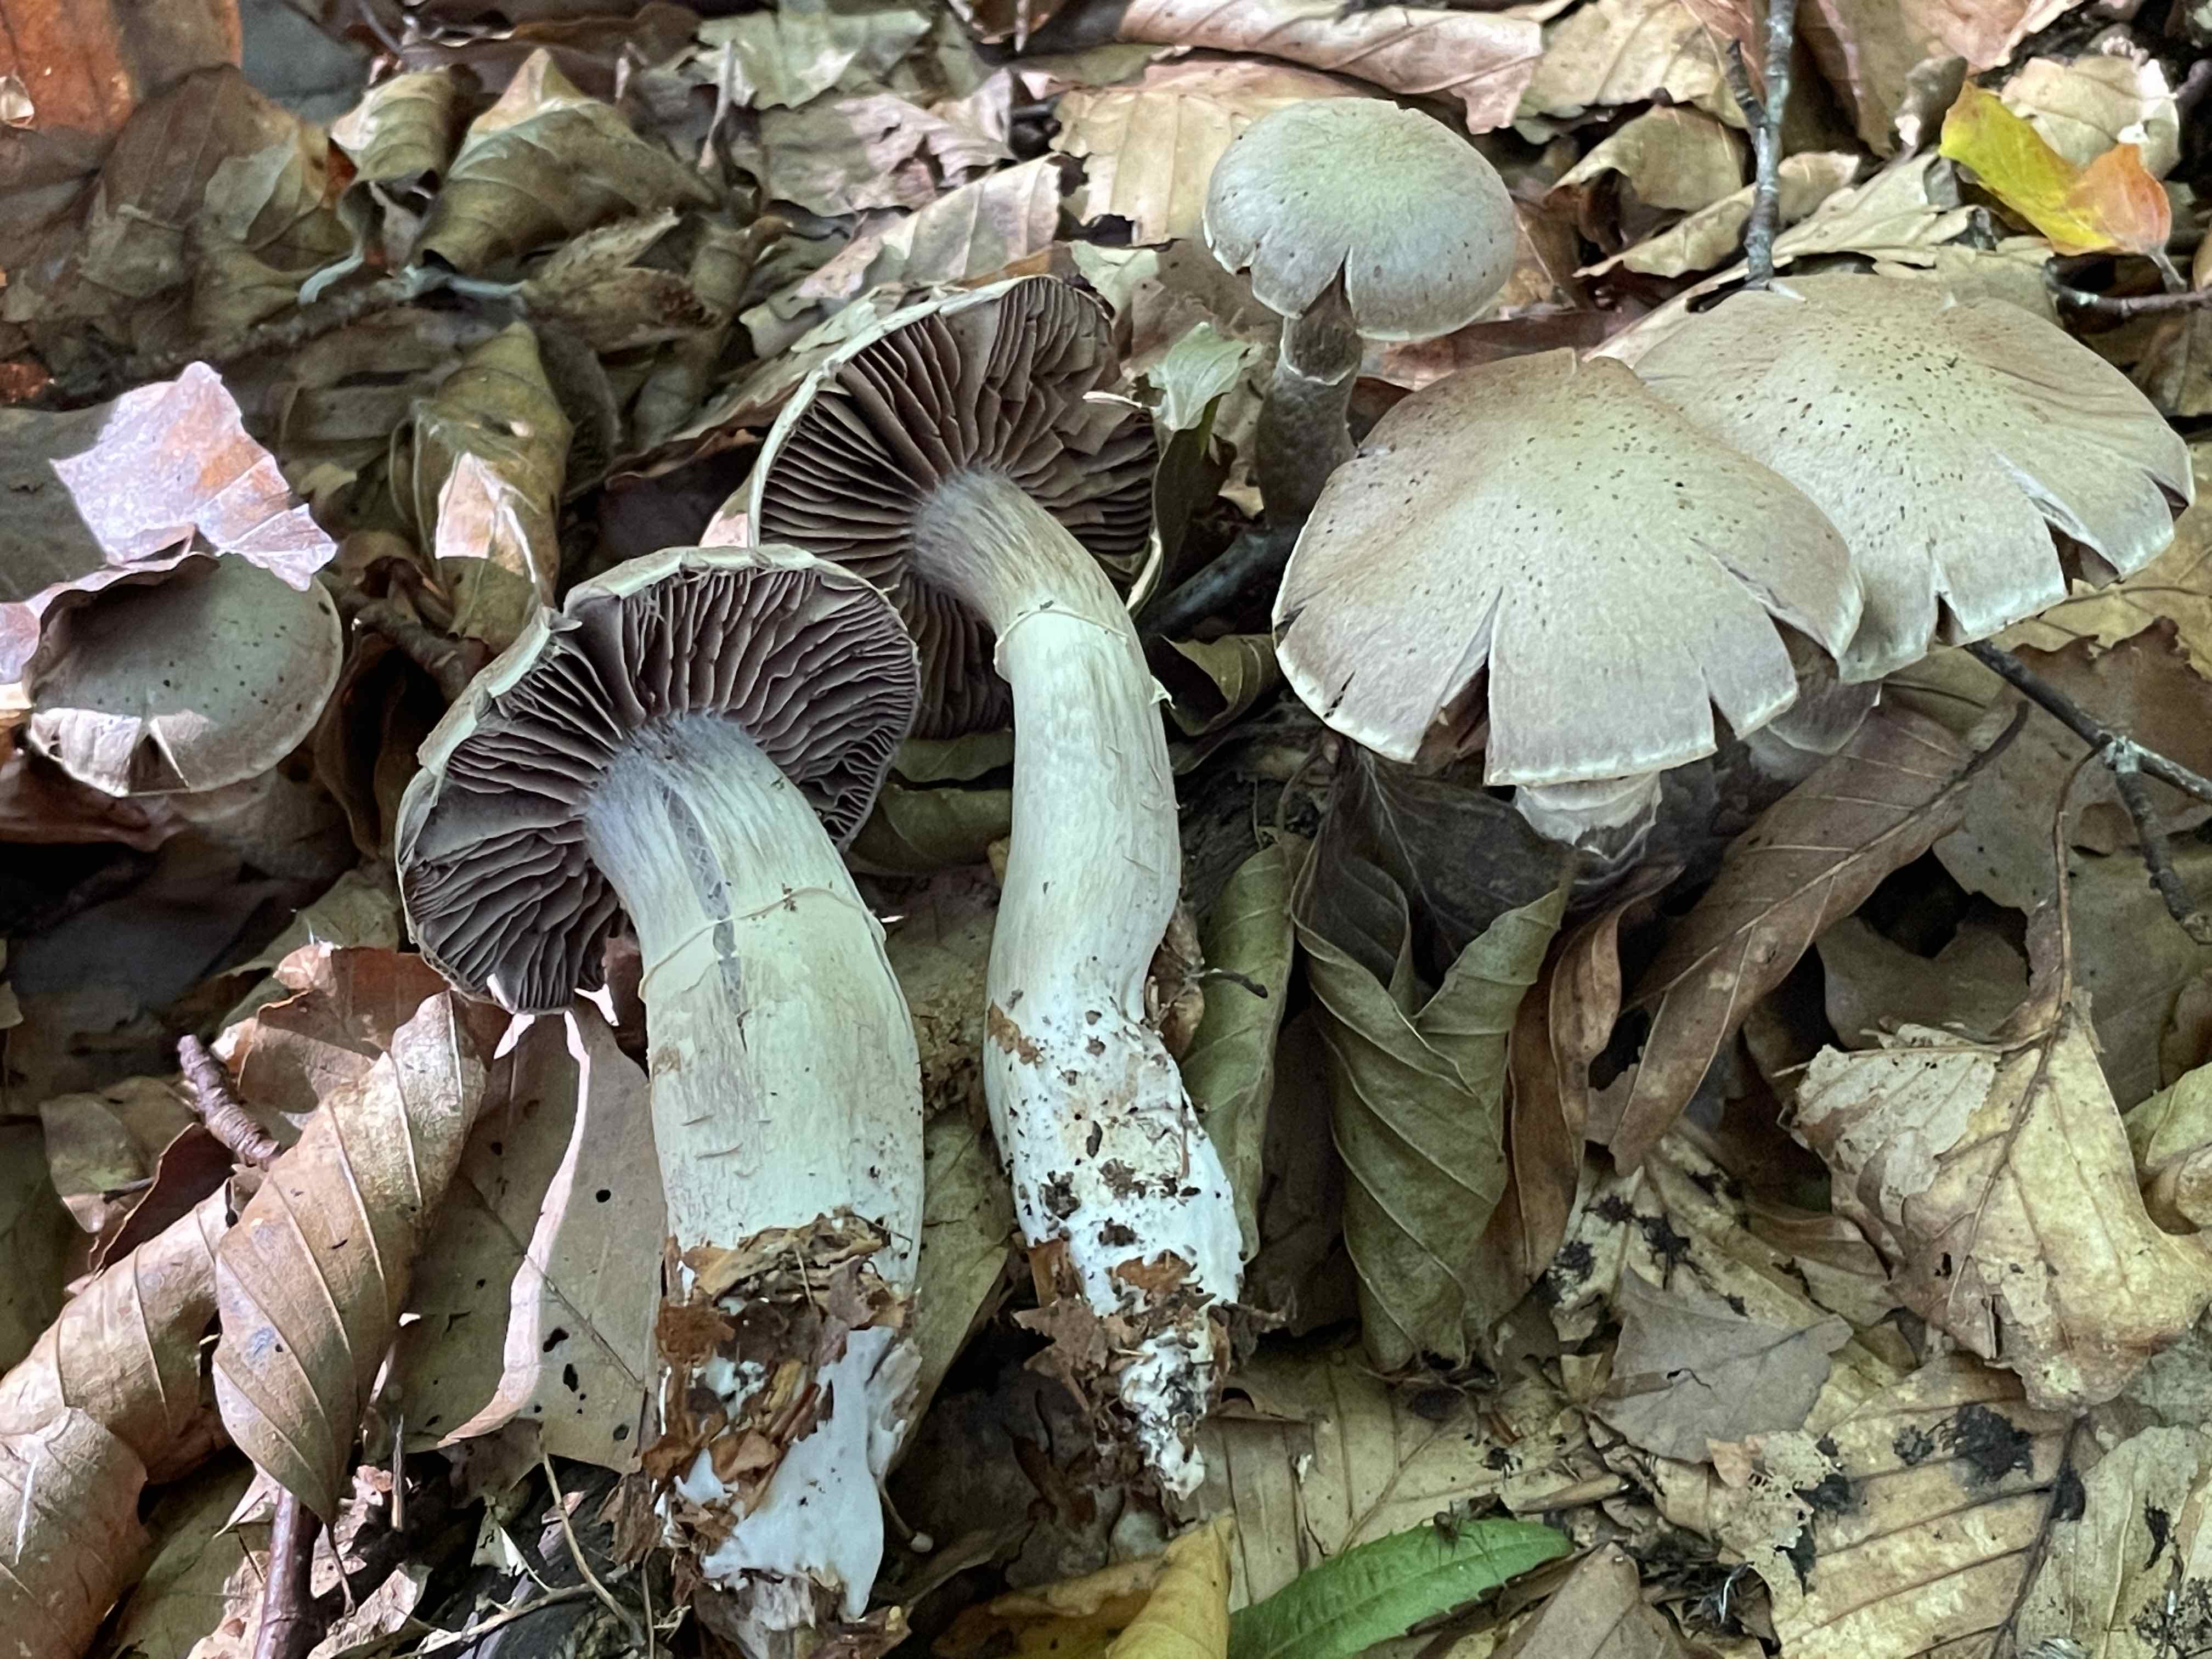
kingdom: Fungi
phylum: Basidiomycota
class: Agaricomycetes
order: Agaricales
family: Cortinariaceae
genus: Cortinarius
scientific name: Cortinarius torvus
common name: champignonagtig slørhat
